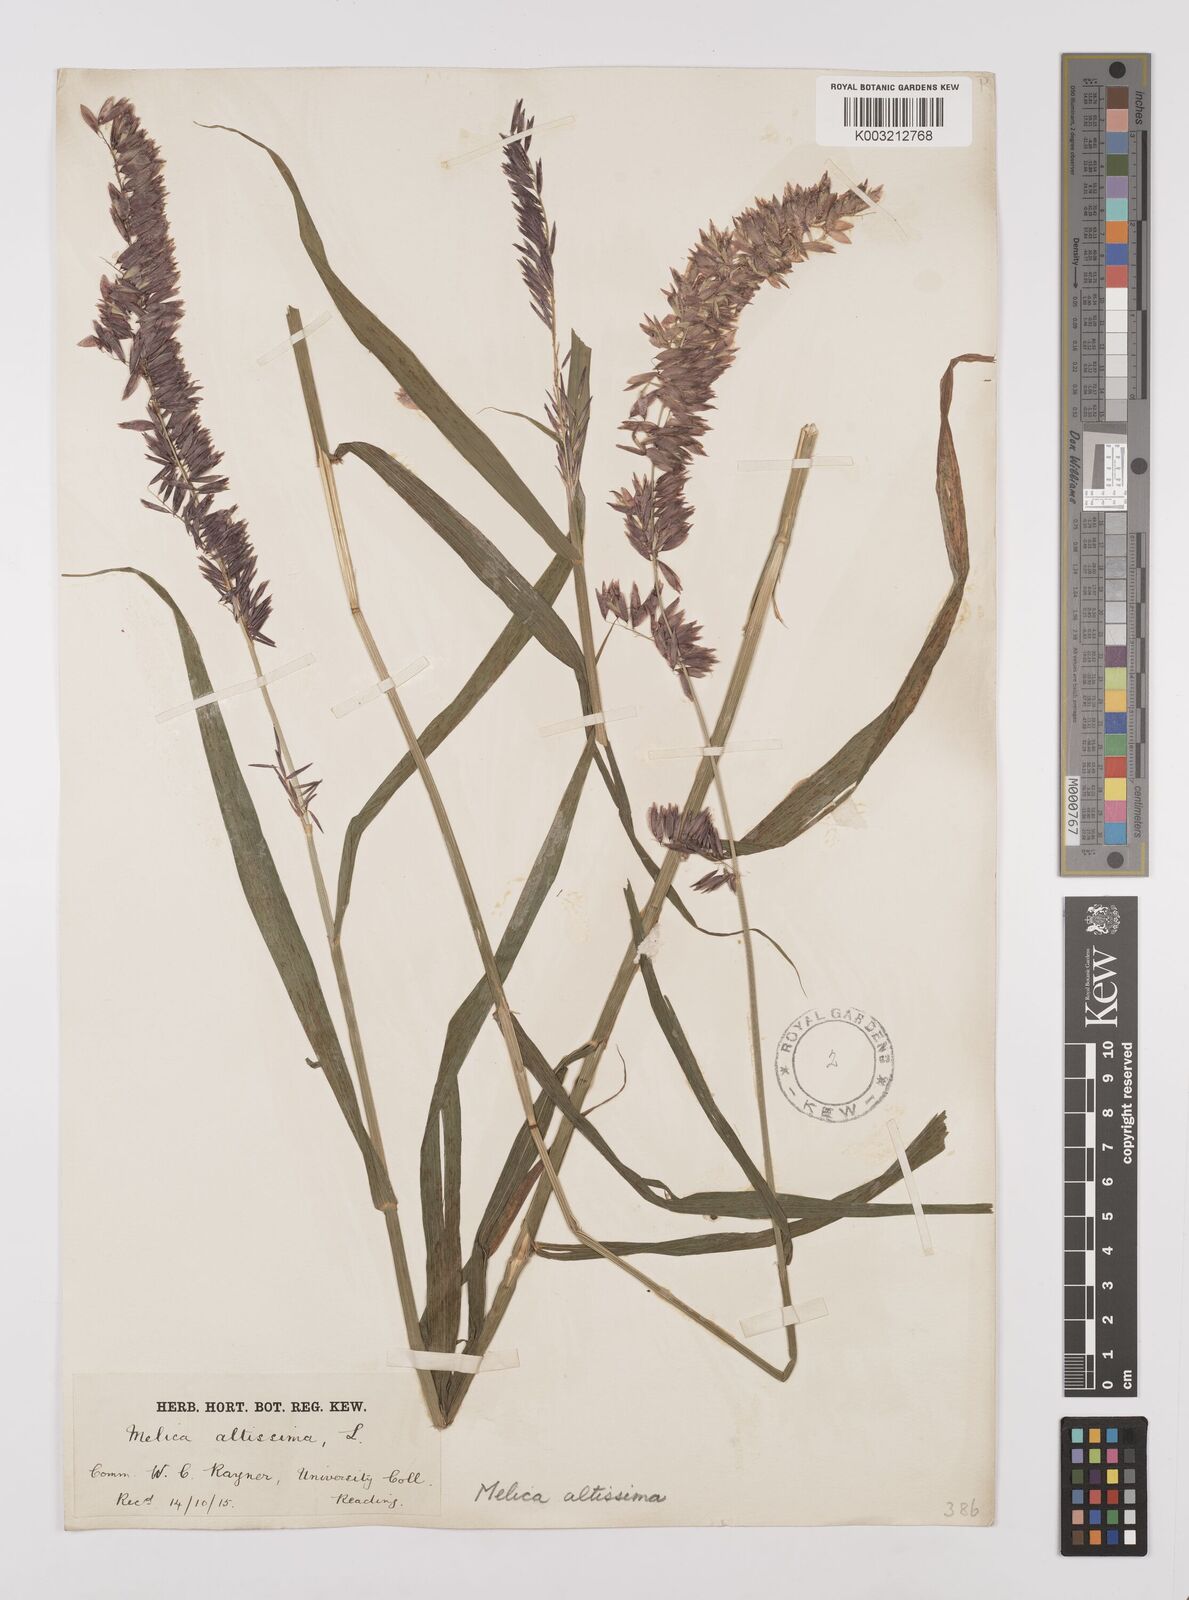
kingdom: Plantae
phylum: Tracheophyta
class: Liliopsida
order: Poales
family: Poaceae
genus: Melica
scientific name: Melica altissima
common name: Siberian melicgrass
